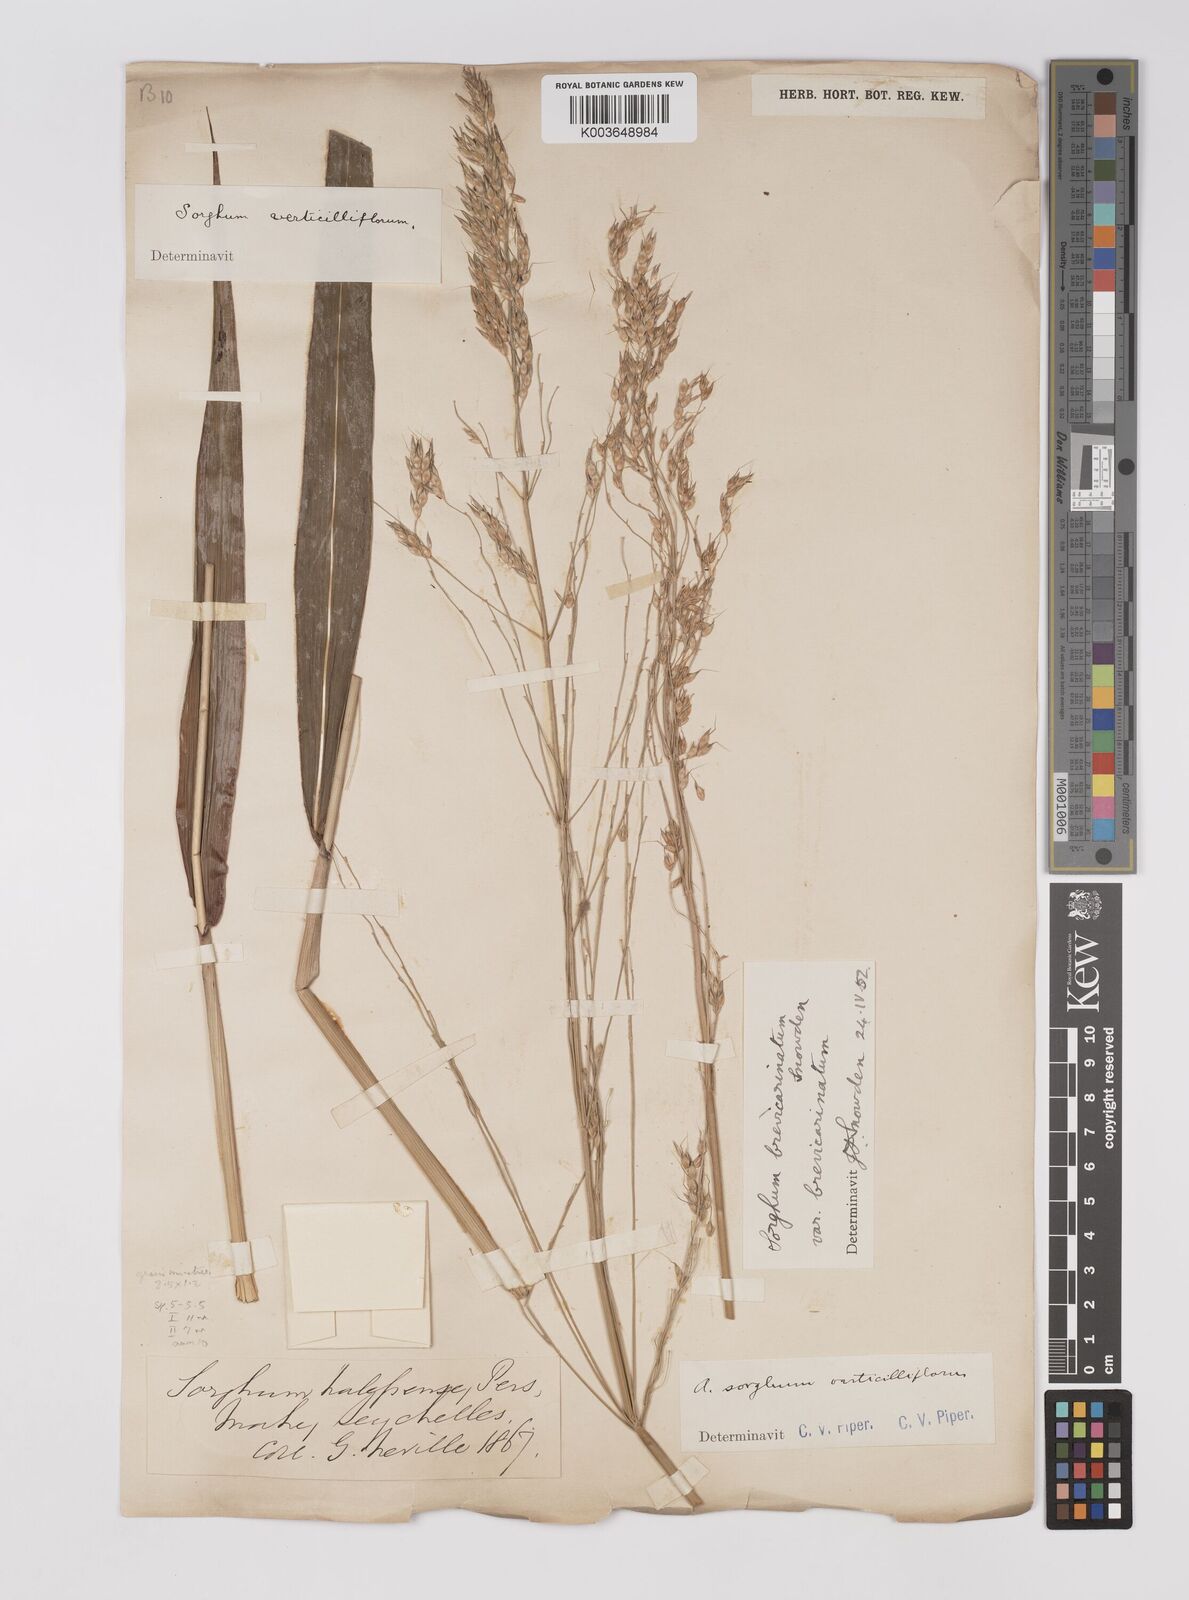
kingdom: Plantae
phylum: Tracheophyta
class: Liliopsida
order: Poales
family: Poaceae
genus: Sorghum
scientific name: Sorghum arundinaceum
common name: Sorghum
